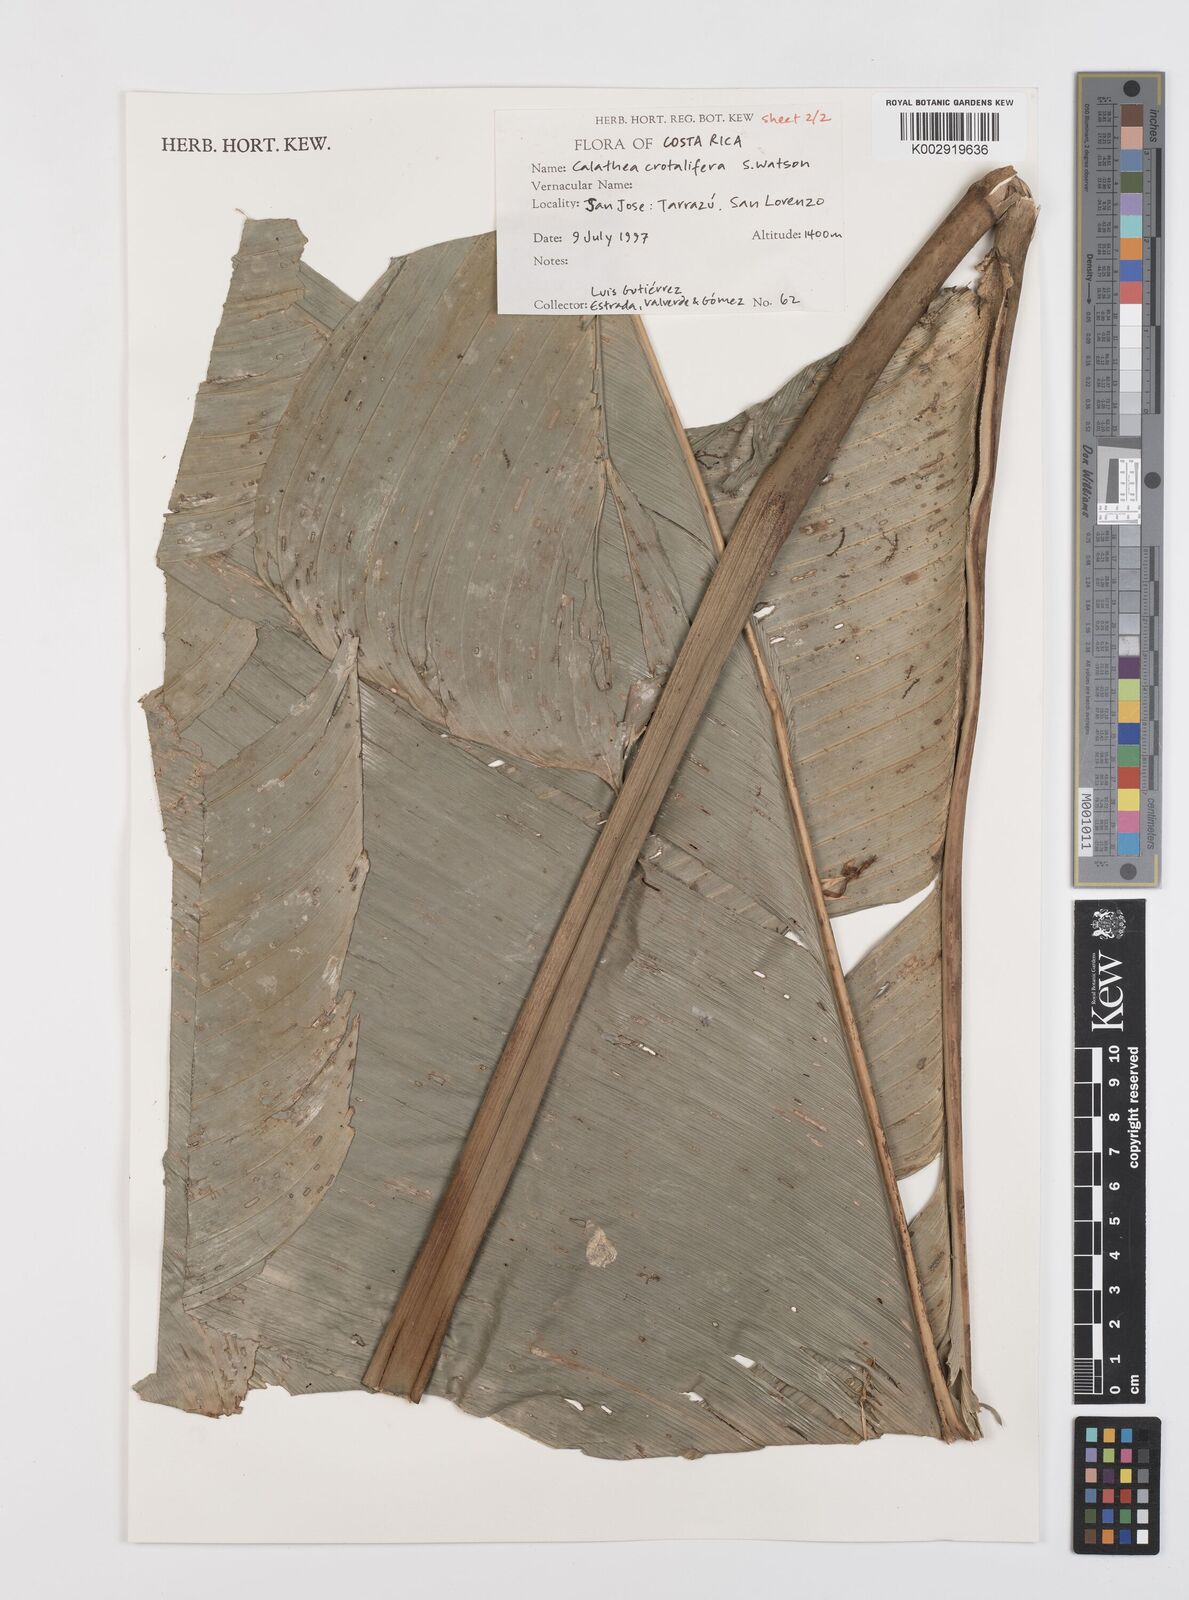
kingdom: Plantae
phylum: Tracheophyta
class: Liliopsida
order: Zingiberales
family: Marantaceae
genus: Calathea
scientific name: Calathea crotalifera
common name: Rattlesnake plant
